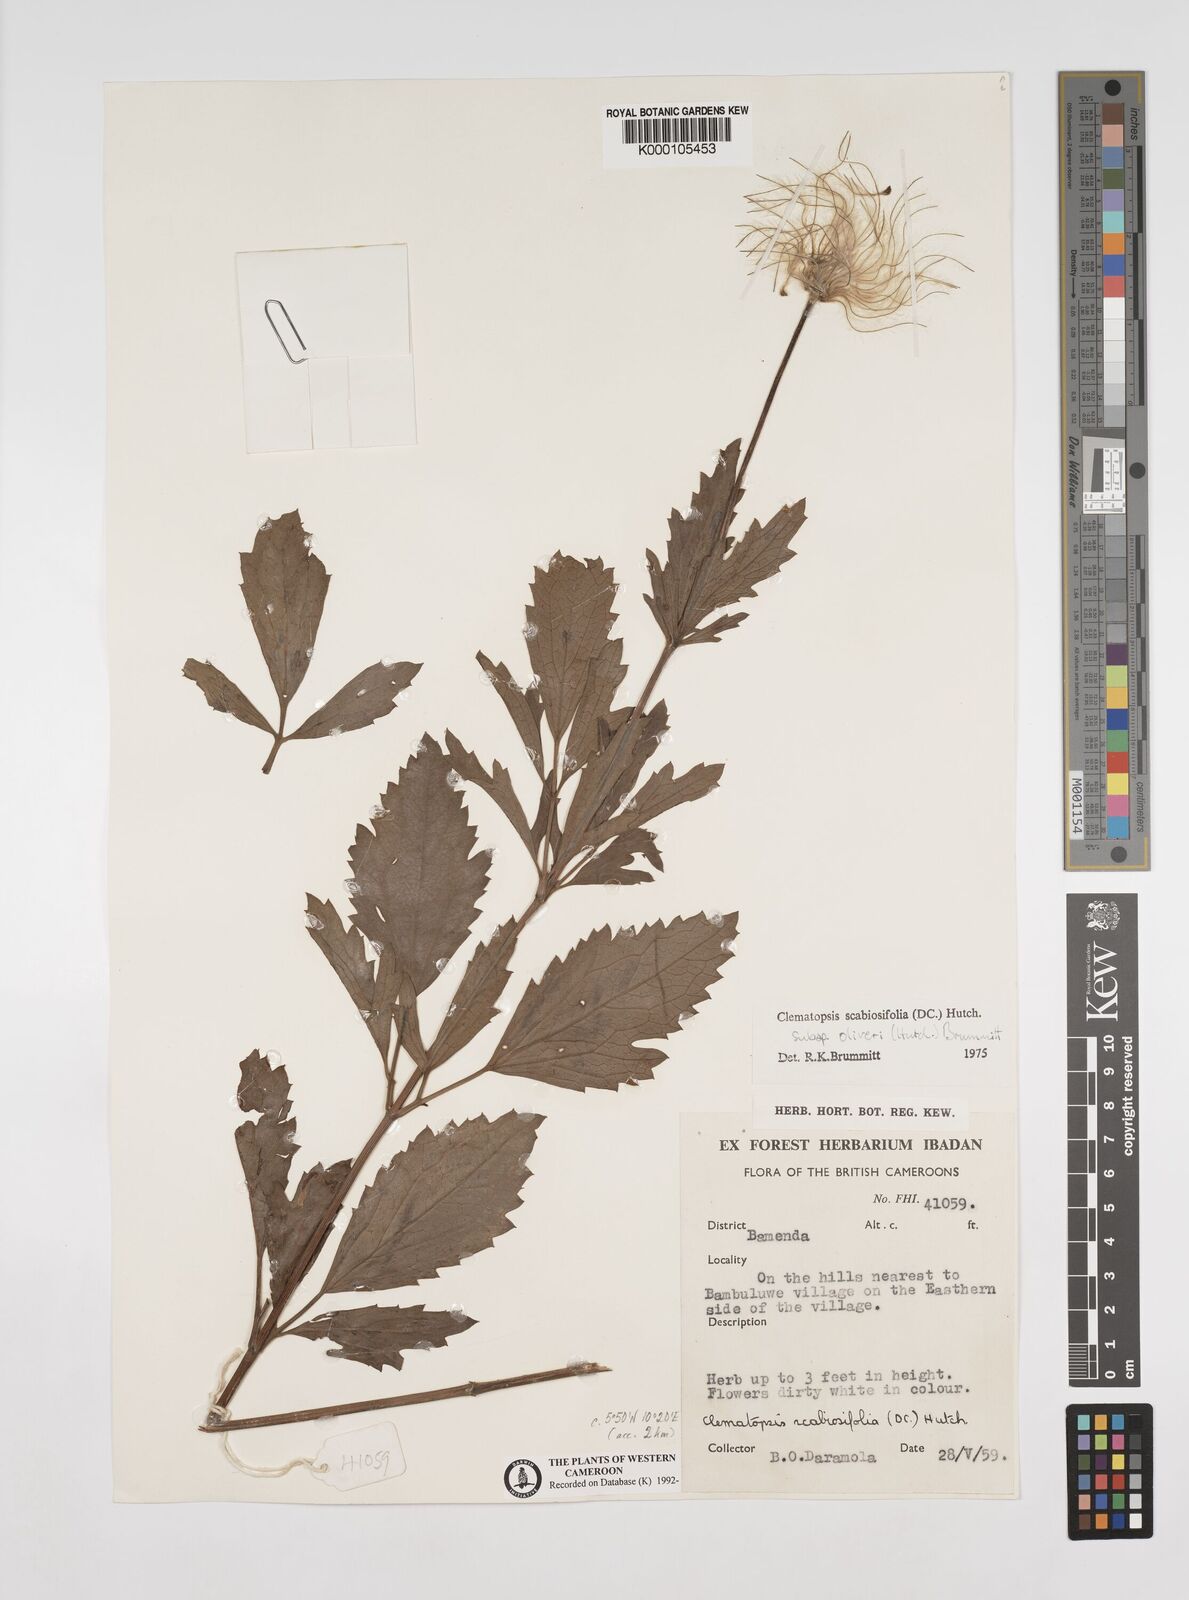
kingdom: Plantae
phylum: Tracheophyta
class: Magnoliopsida
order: Ranunculales
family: Ranunculaceae
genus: Clematis
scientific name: Clematis villosa
